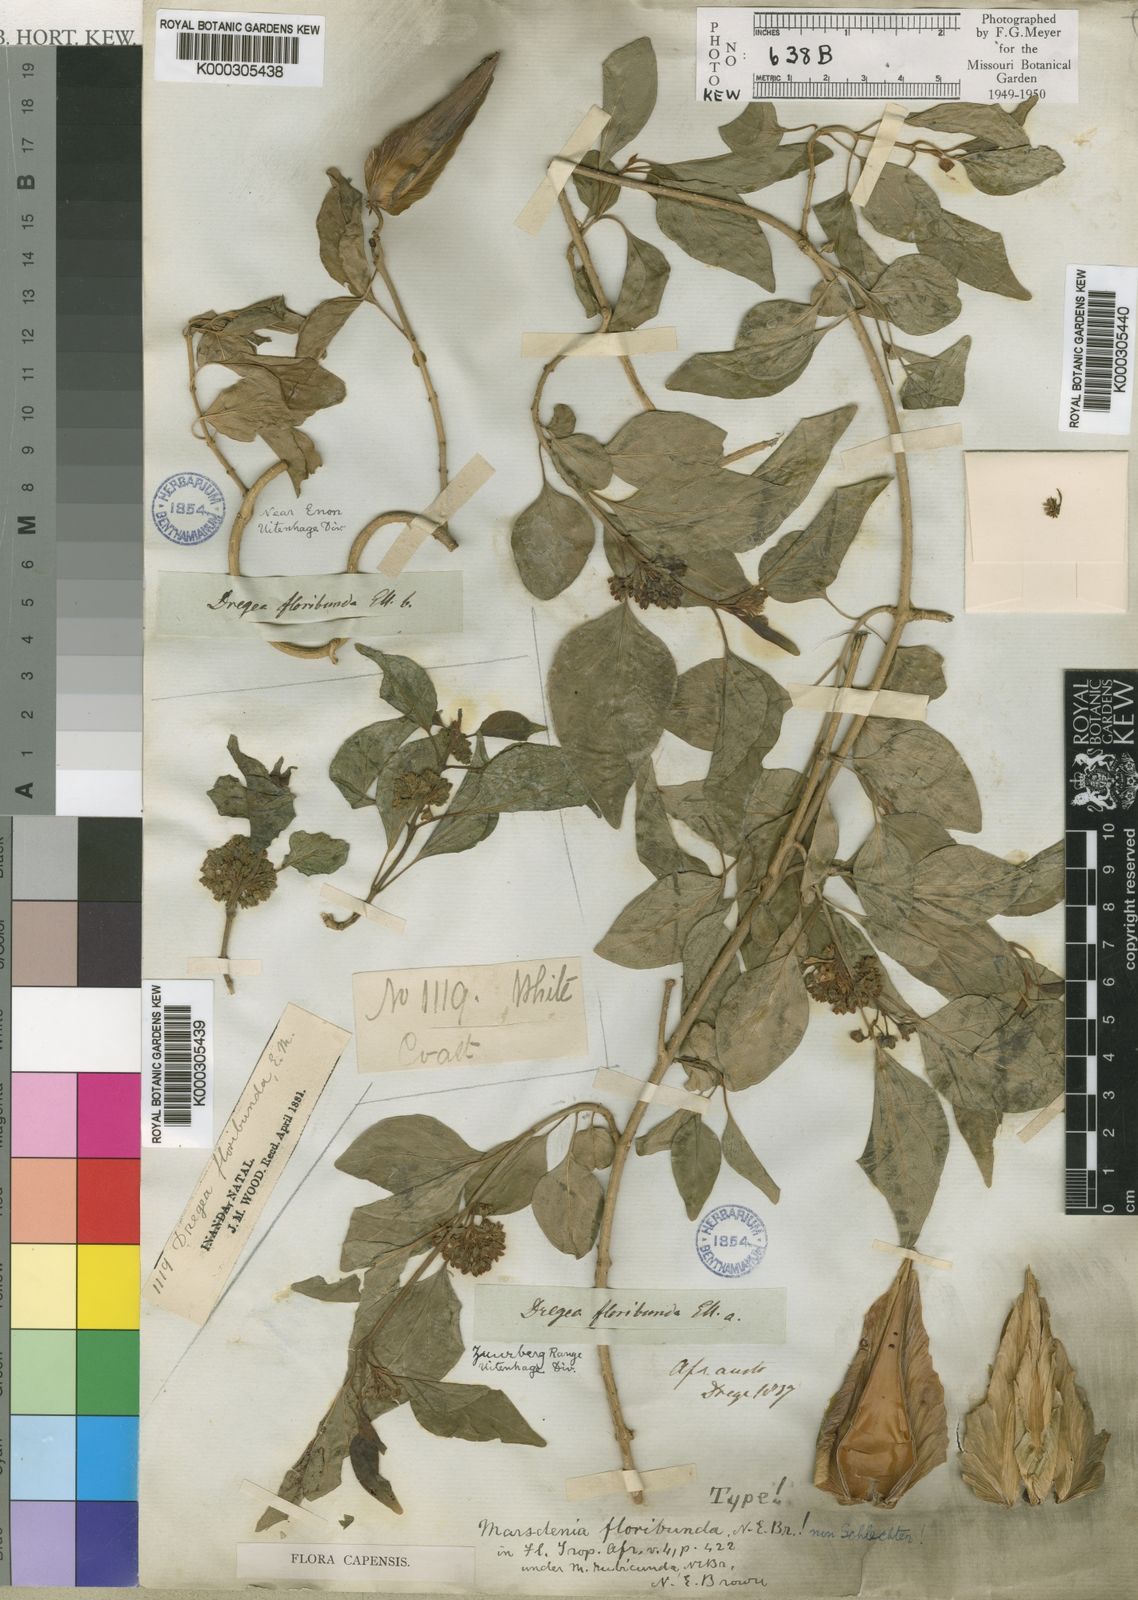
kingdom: Plantae
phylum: Tracheophyta
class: Magnoliopsida
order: Gentianales
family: Apocynaceae
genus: Stephanotis
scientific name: Stephanotis ernstmeyeri
